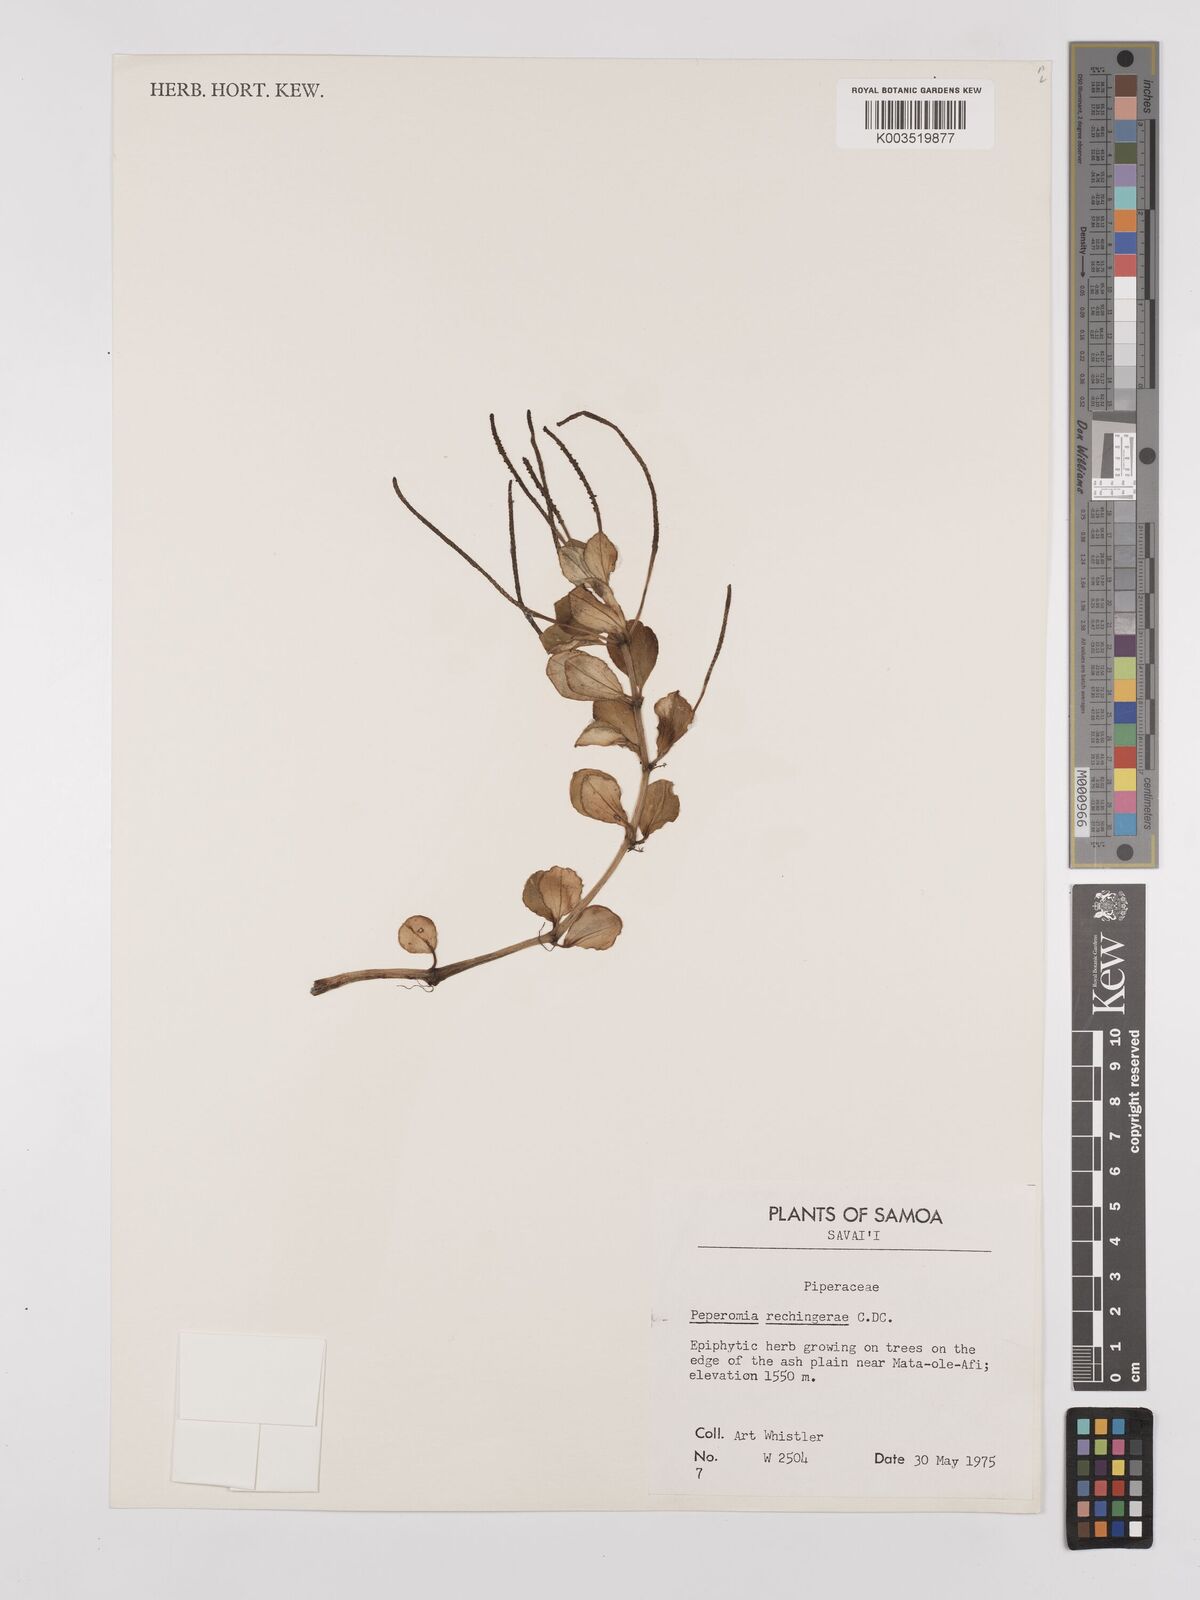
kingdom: Plantae
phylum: Tracheophyta
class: Magnoliopsida
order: Piperales
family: Piperaceae
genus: Peperomia
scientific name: Peperomia rechingerae
